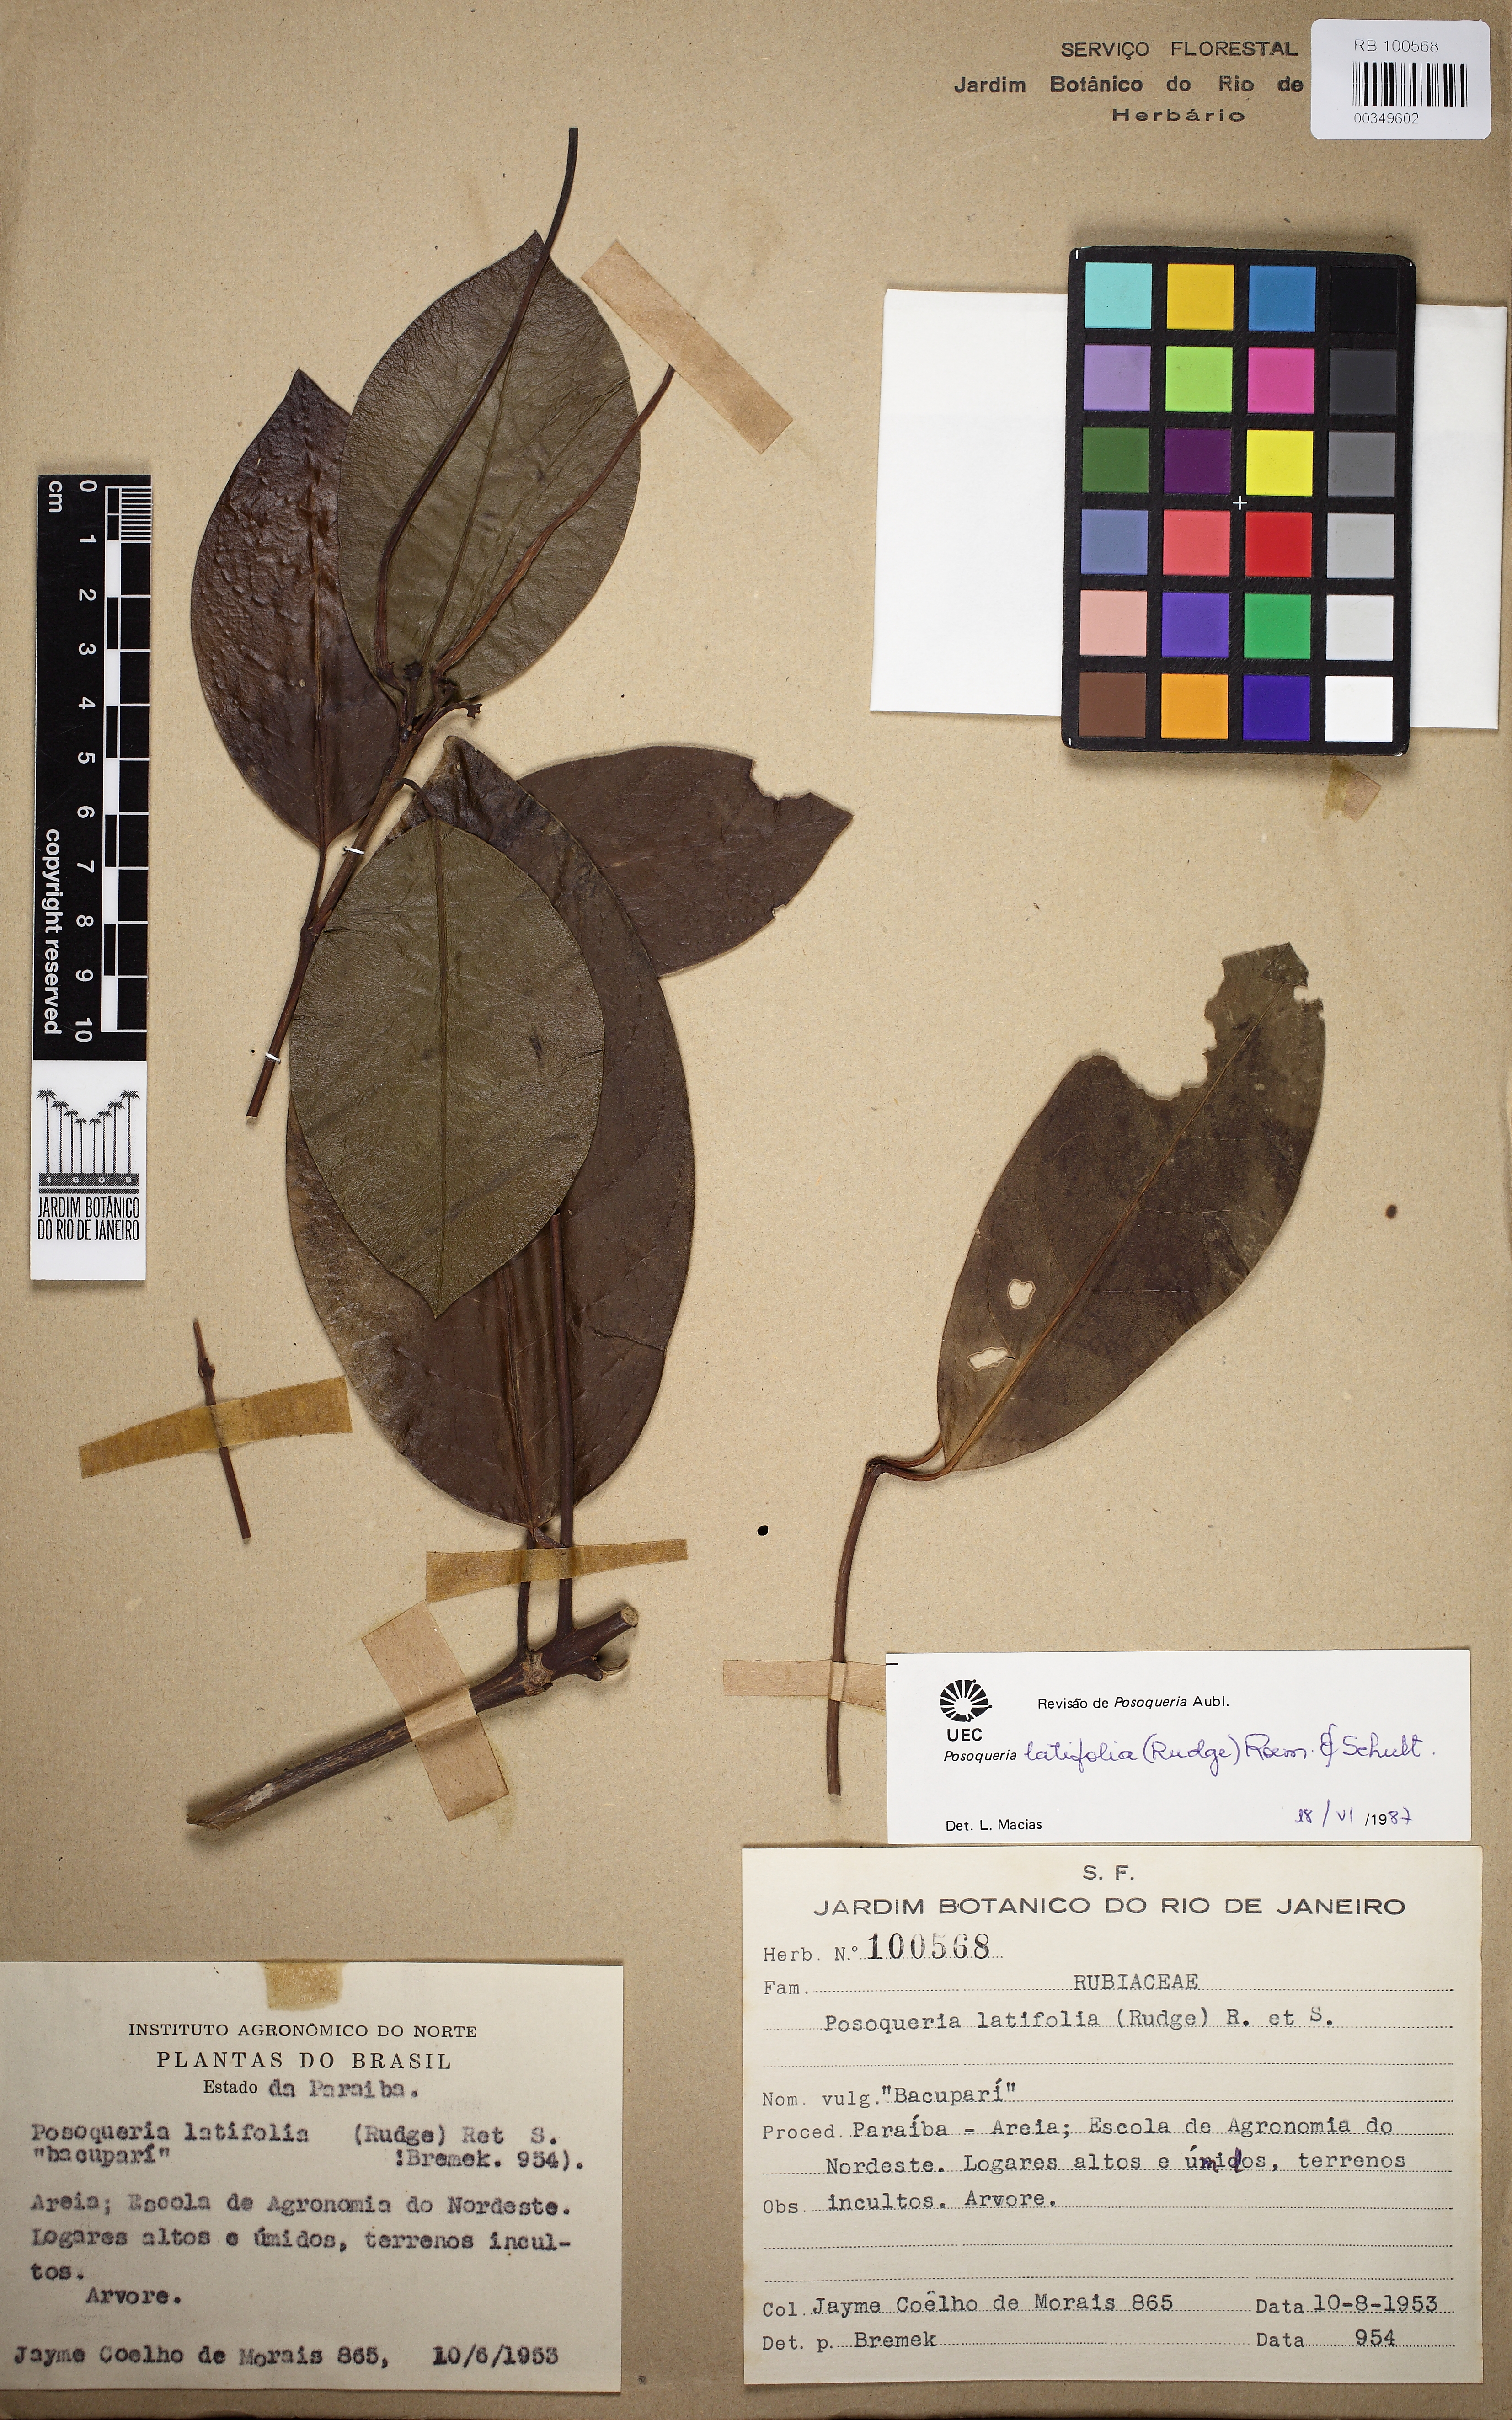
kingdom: Plantae
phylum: Tracheophyta
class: Magnoliopsida
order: Gentianales
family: Rubiaceae
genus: Posoqueria
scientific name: Posoqueria latifolia
